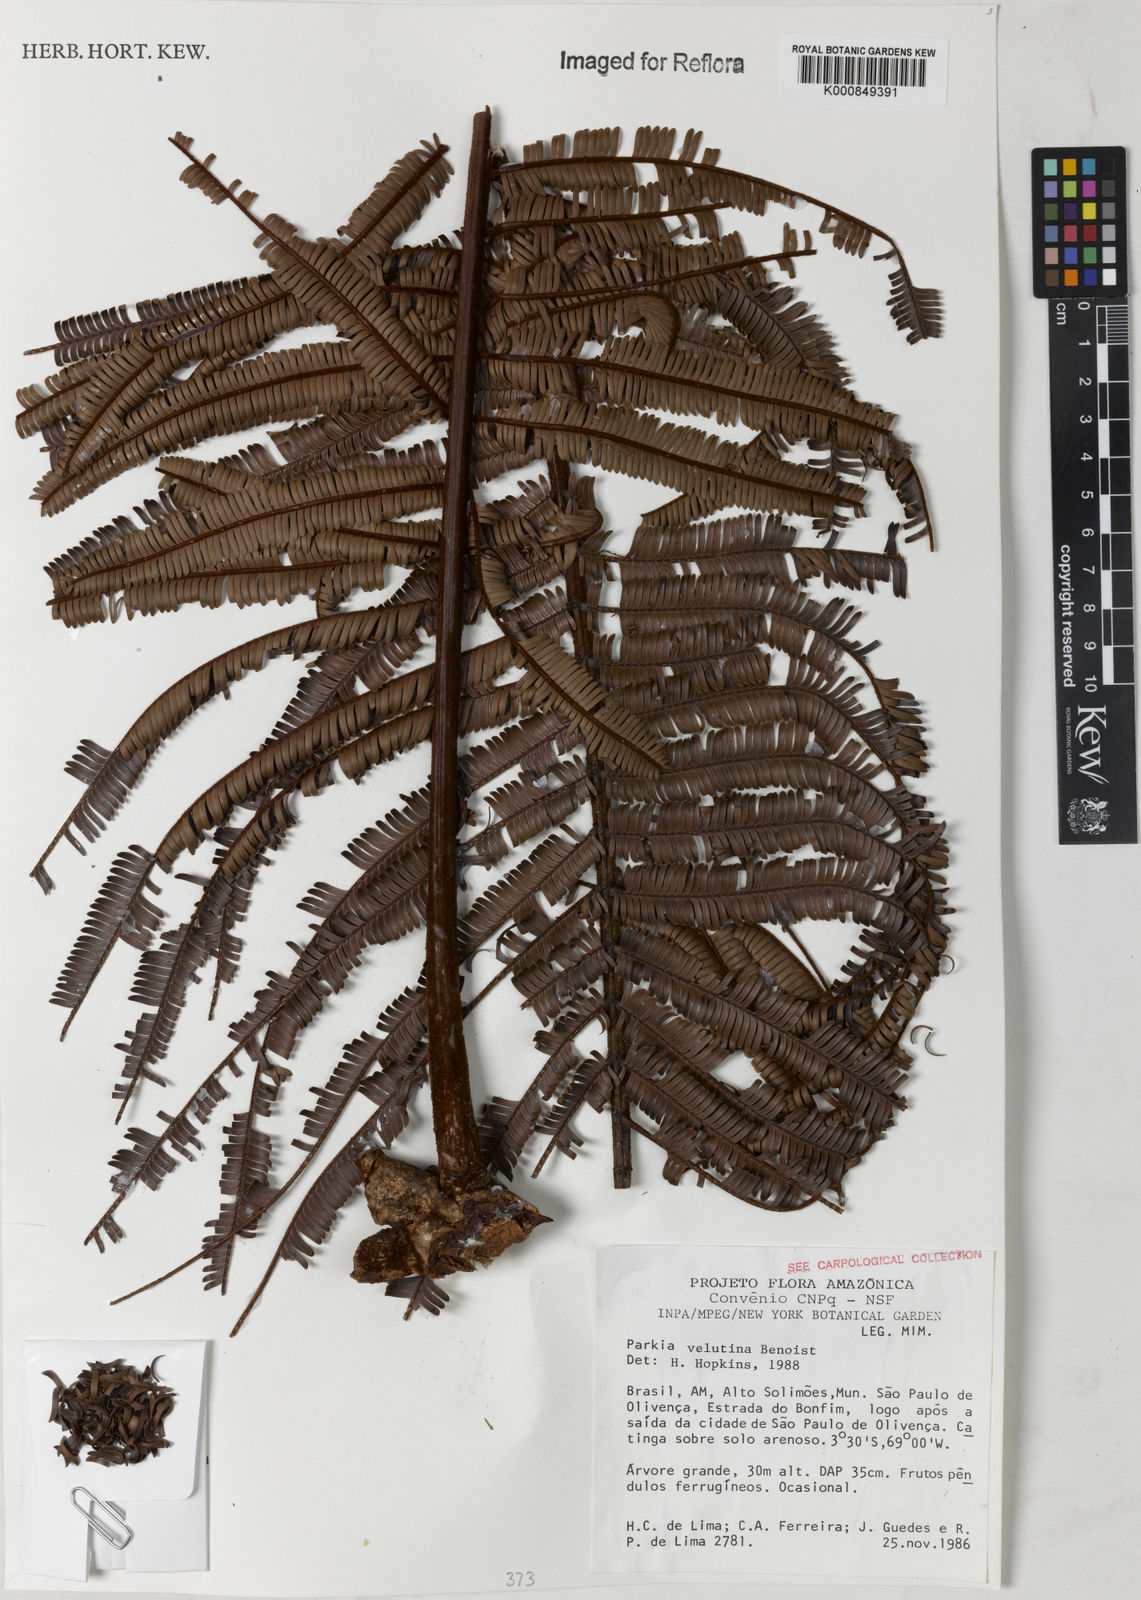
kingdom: Plantae
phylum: Tracheophyta
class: Magnoliopsida
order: Fabales
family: Fabaceae
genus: Parkia
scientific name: Parkia velutina
